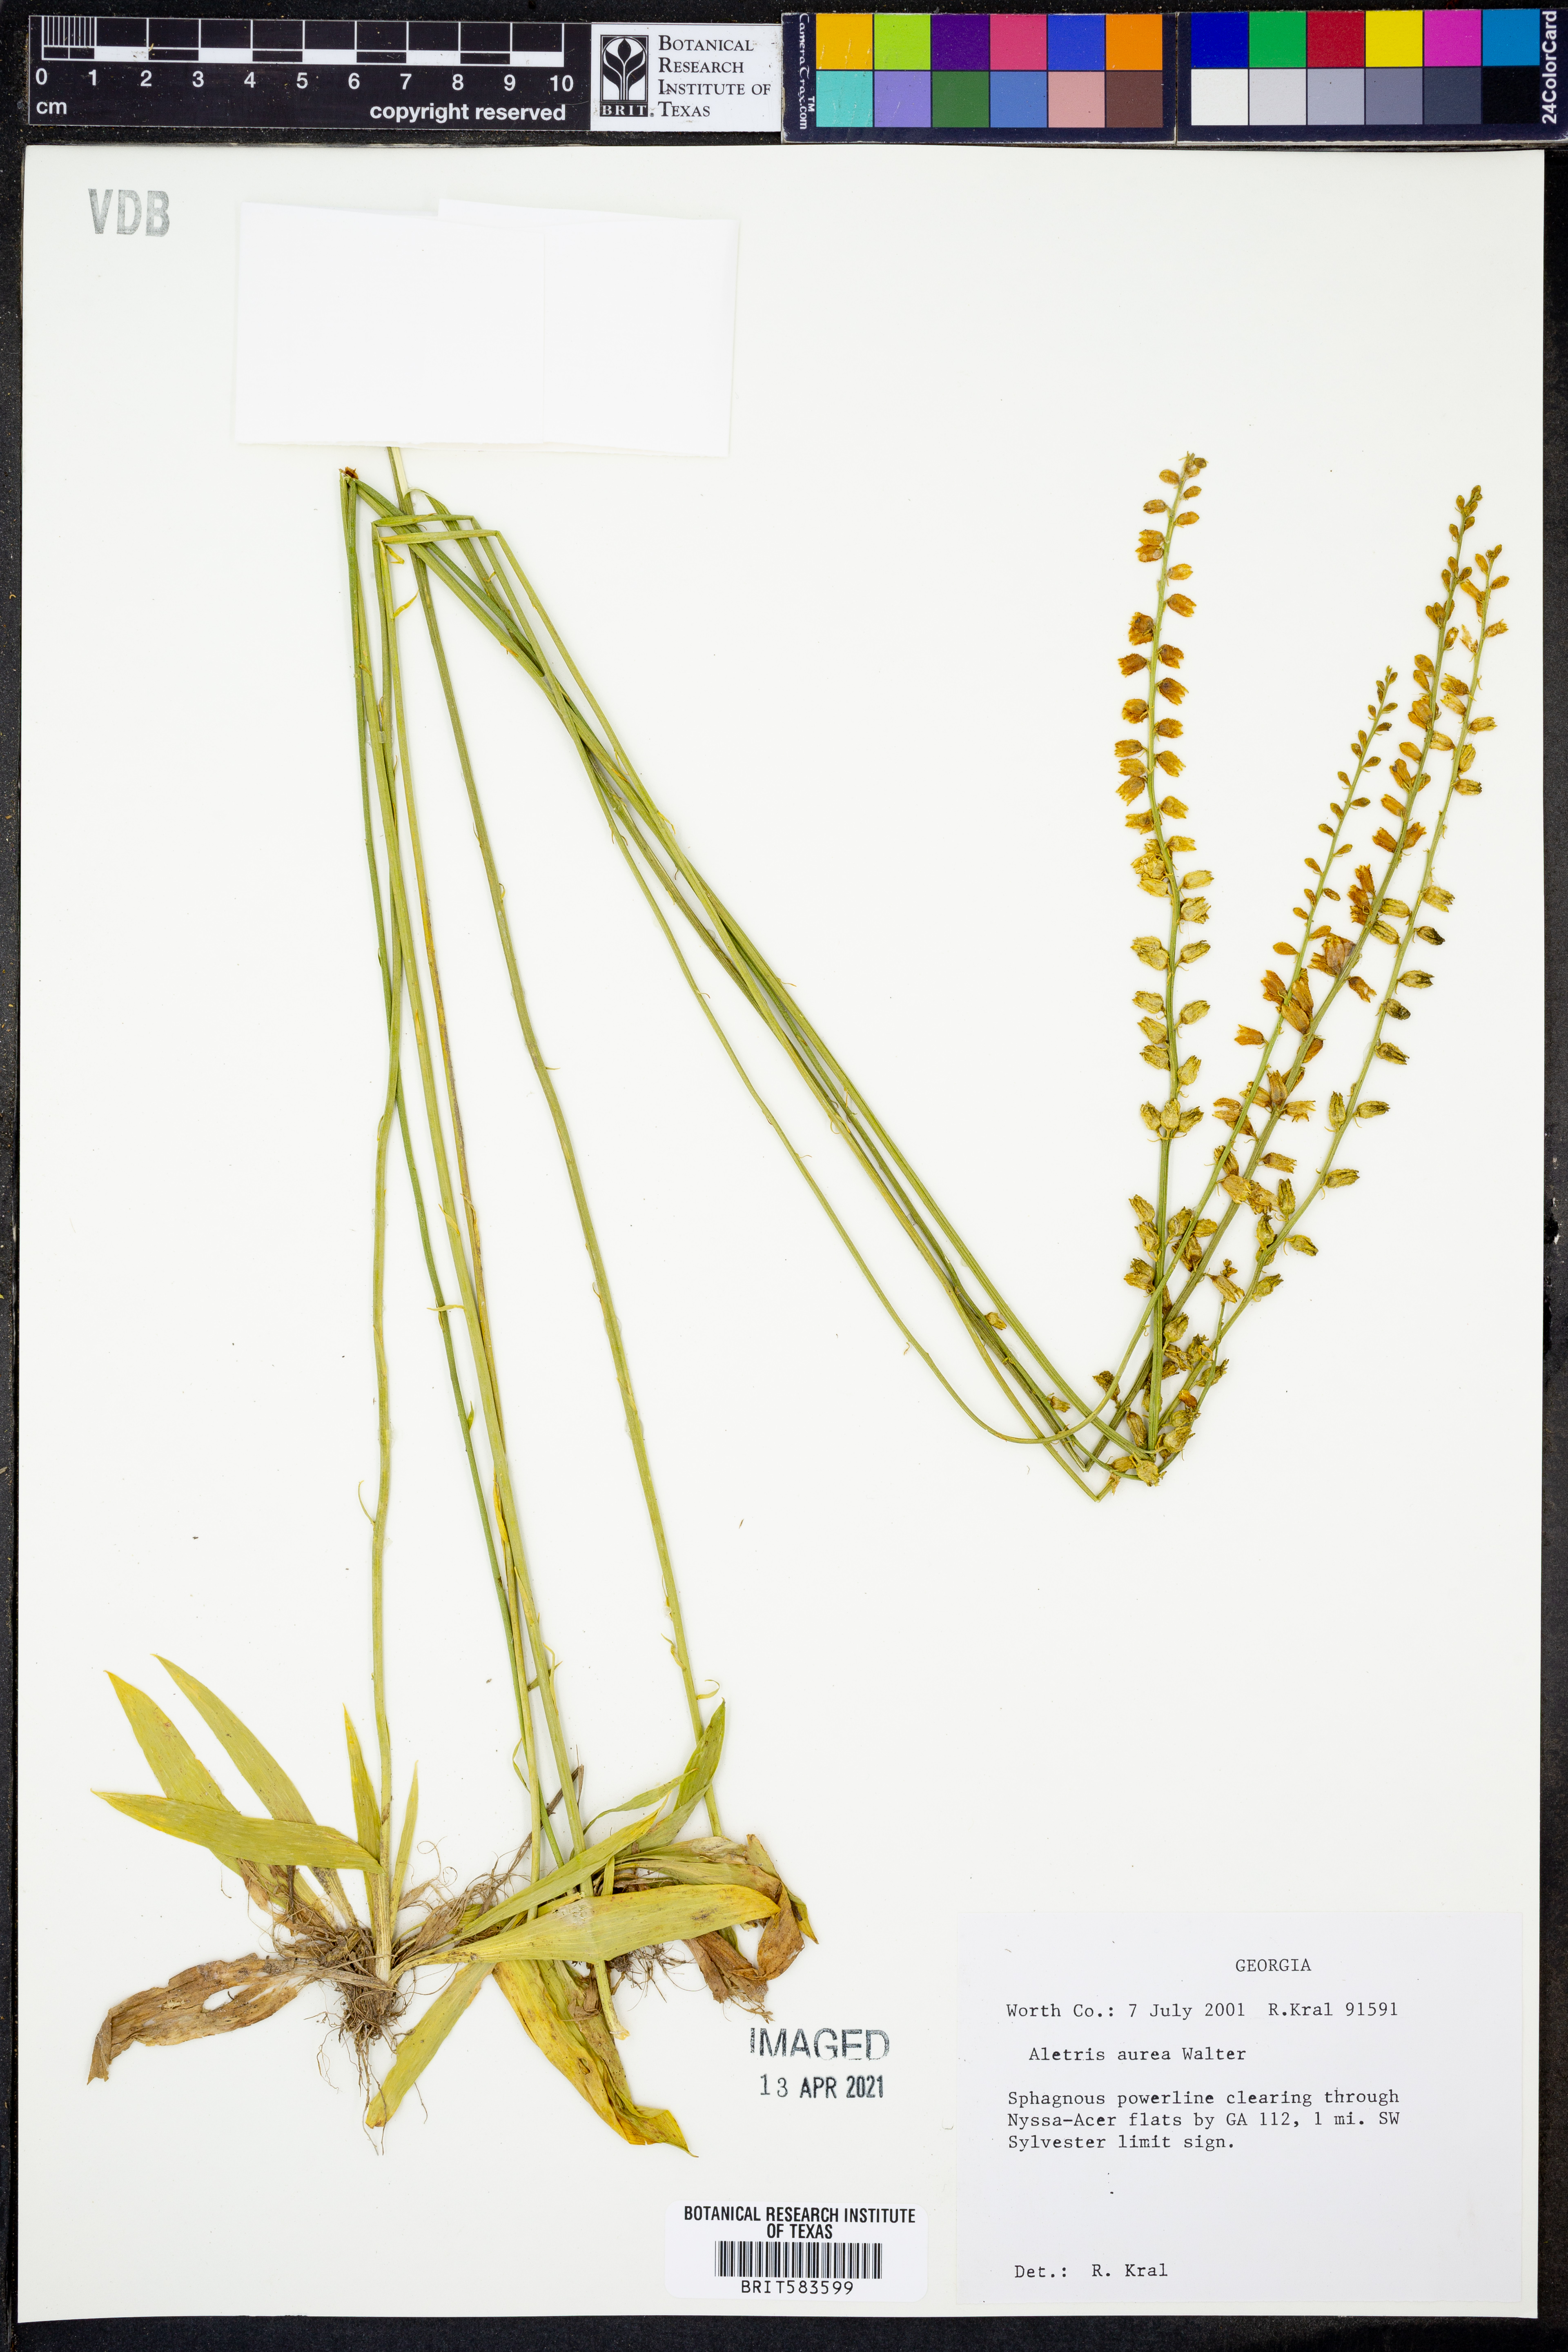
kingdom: Plantae
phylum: Tracheophyta
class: Liliopsida
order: Dioscoreales
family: Nartheciaceae
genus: Aletris
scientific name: Aletris aurea
